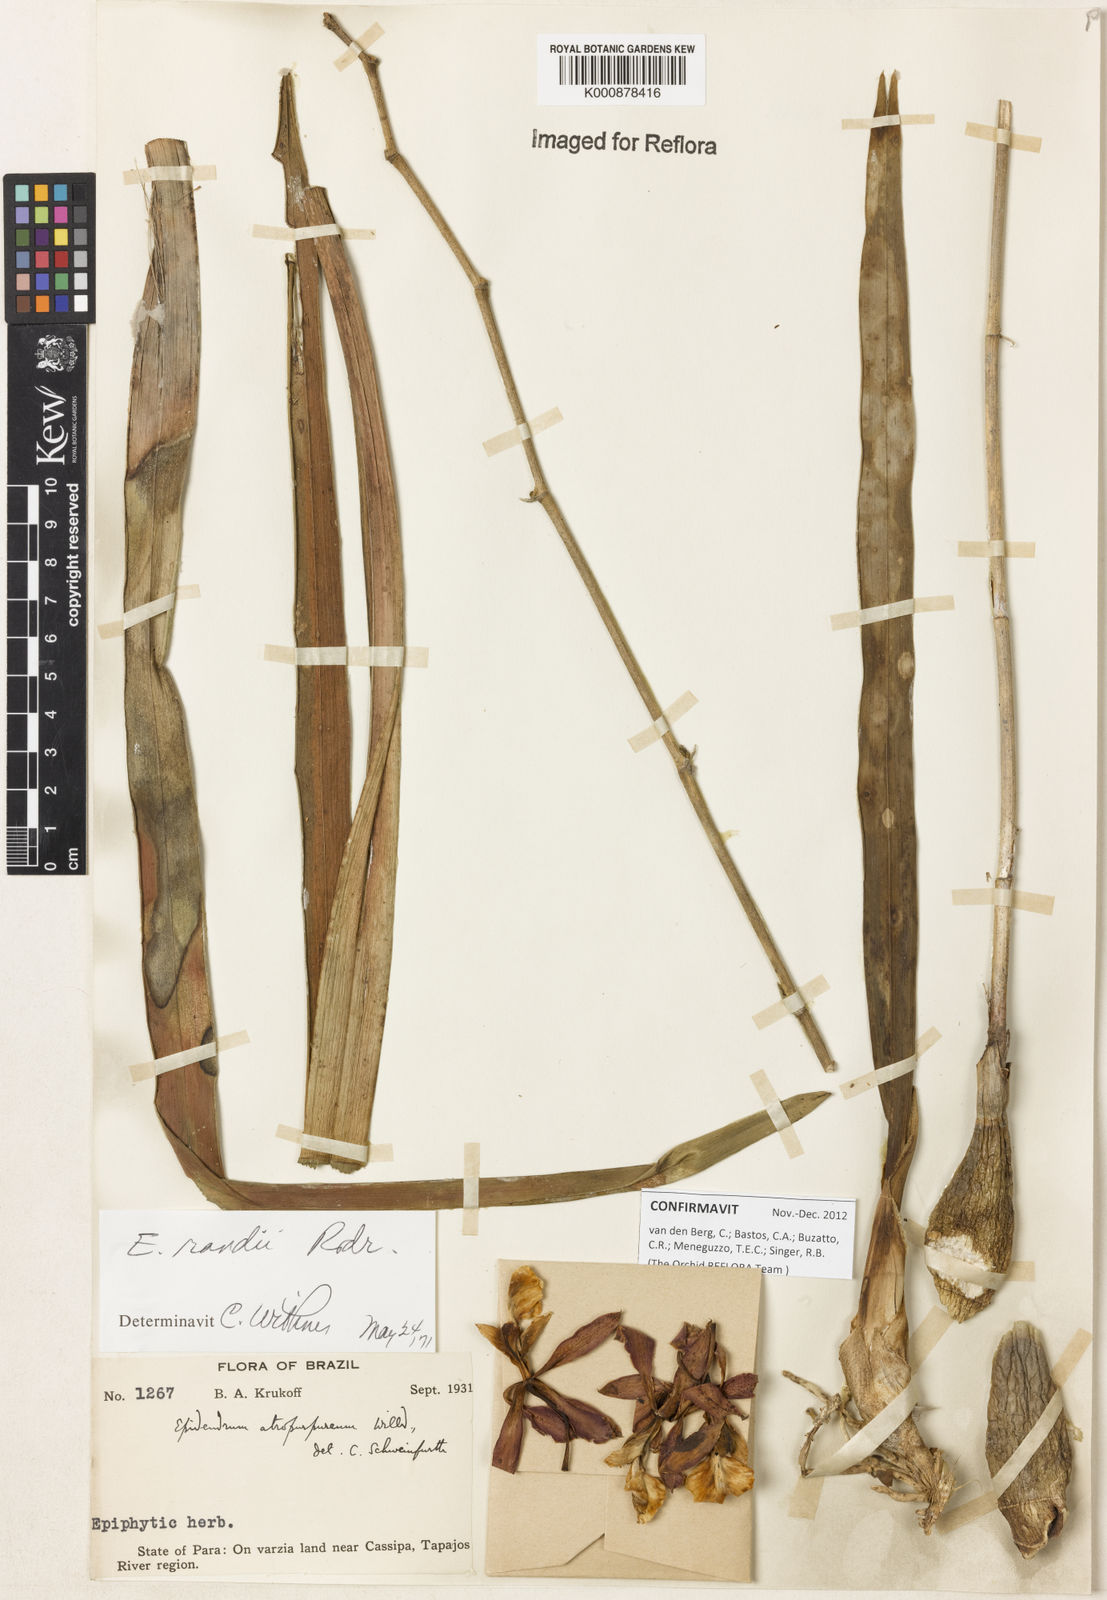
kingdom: Plantae
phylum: Tracheophyta
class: Liliopsida
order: Asparagales
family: Orchidaceae
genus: Encyclia
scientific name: Encyclia randii
